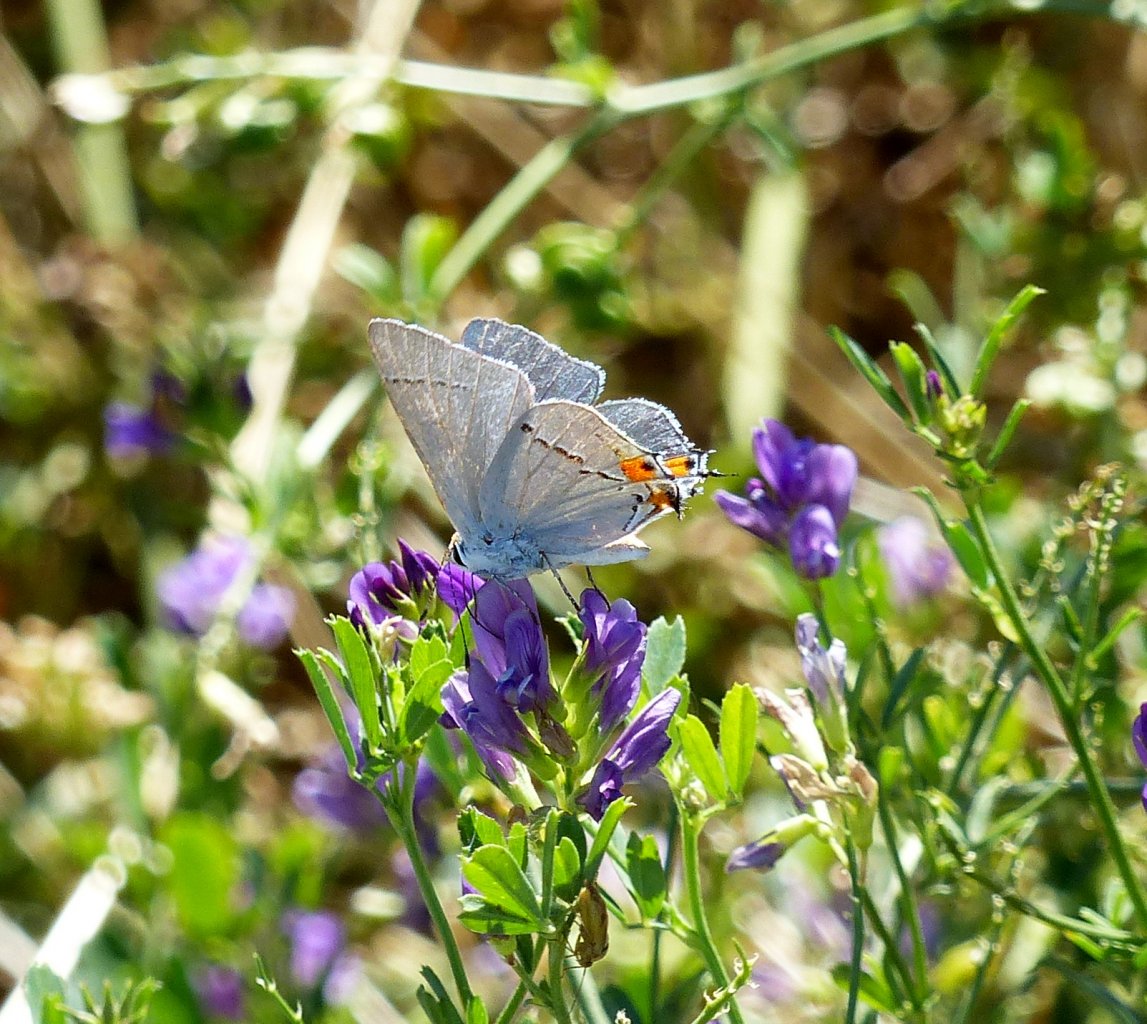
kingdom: Animalia
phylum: Arthropoda
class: Insecta
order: Lepidoptera
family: Lycaenidae
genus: Strymon
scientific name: Strymon melinus
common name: Gray Hairstreak
